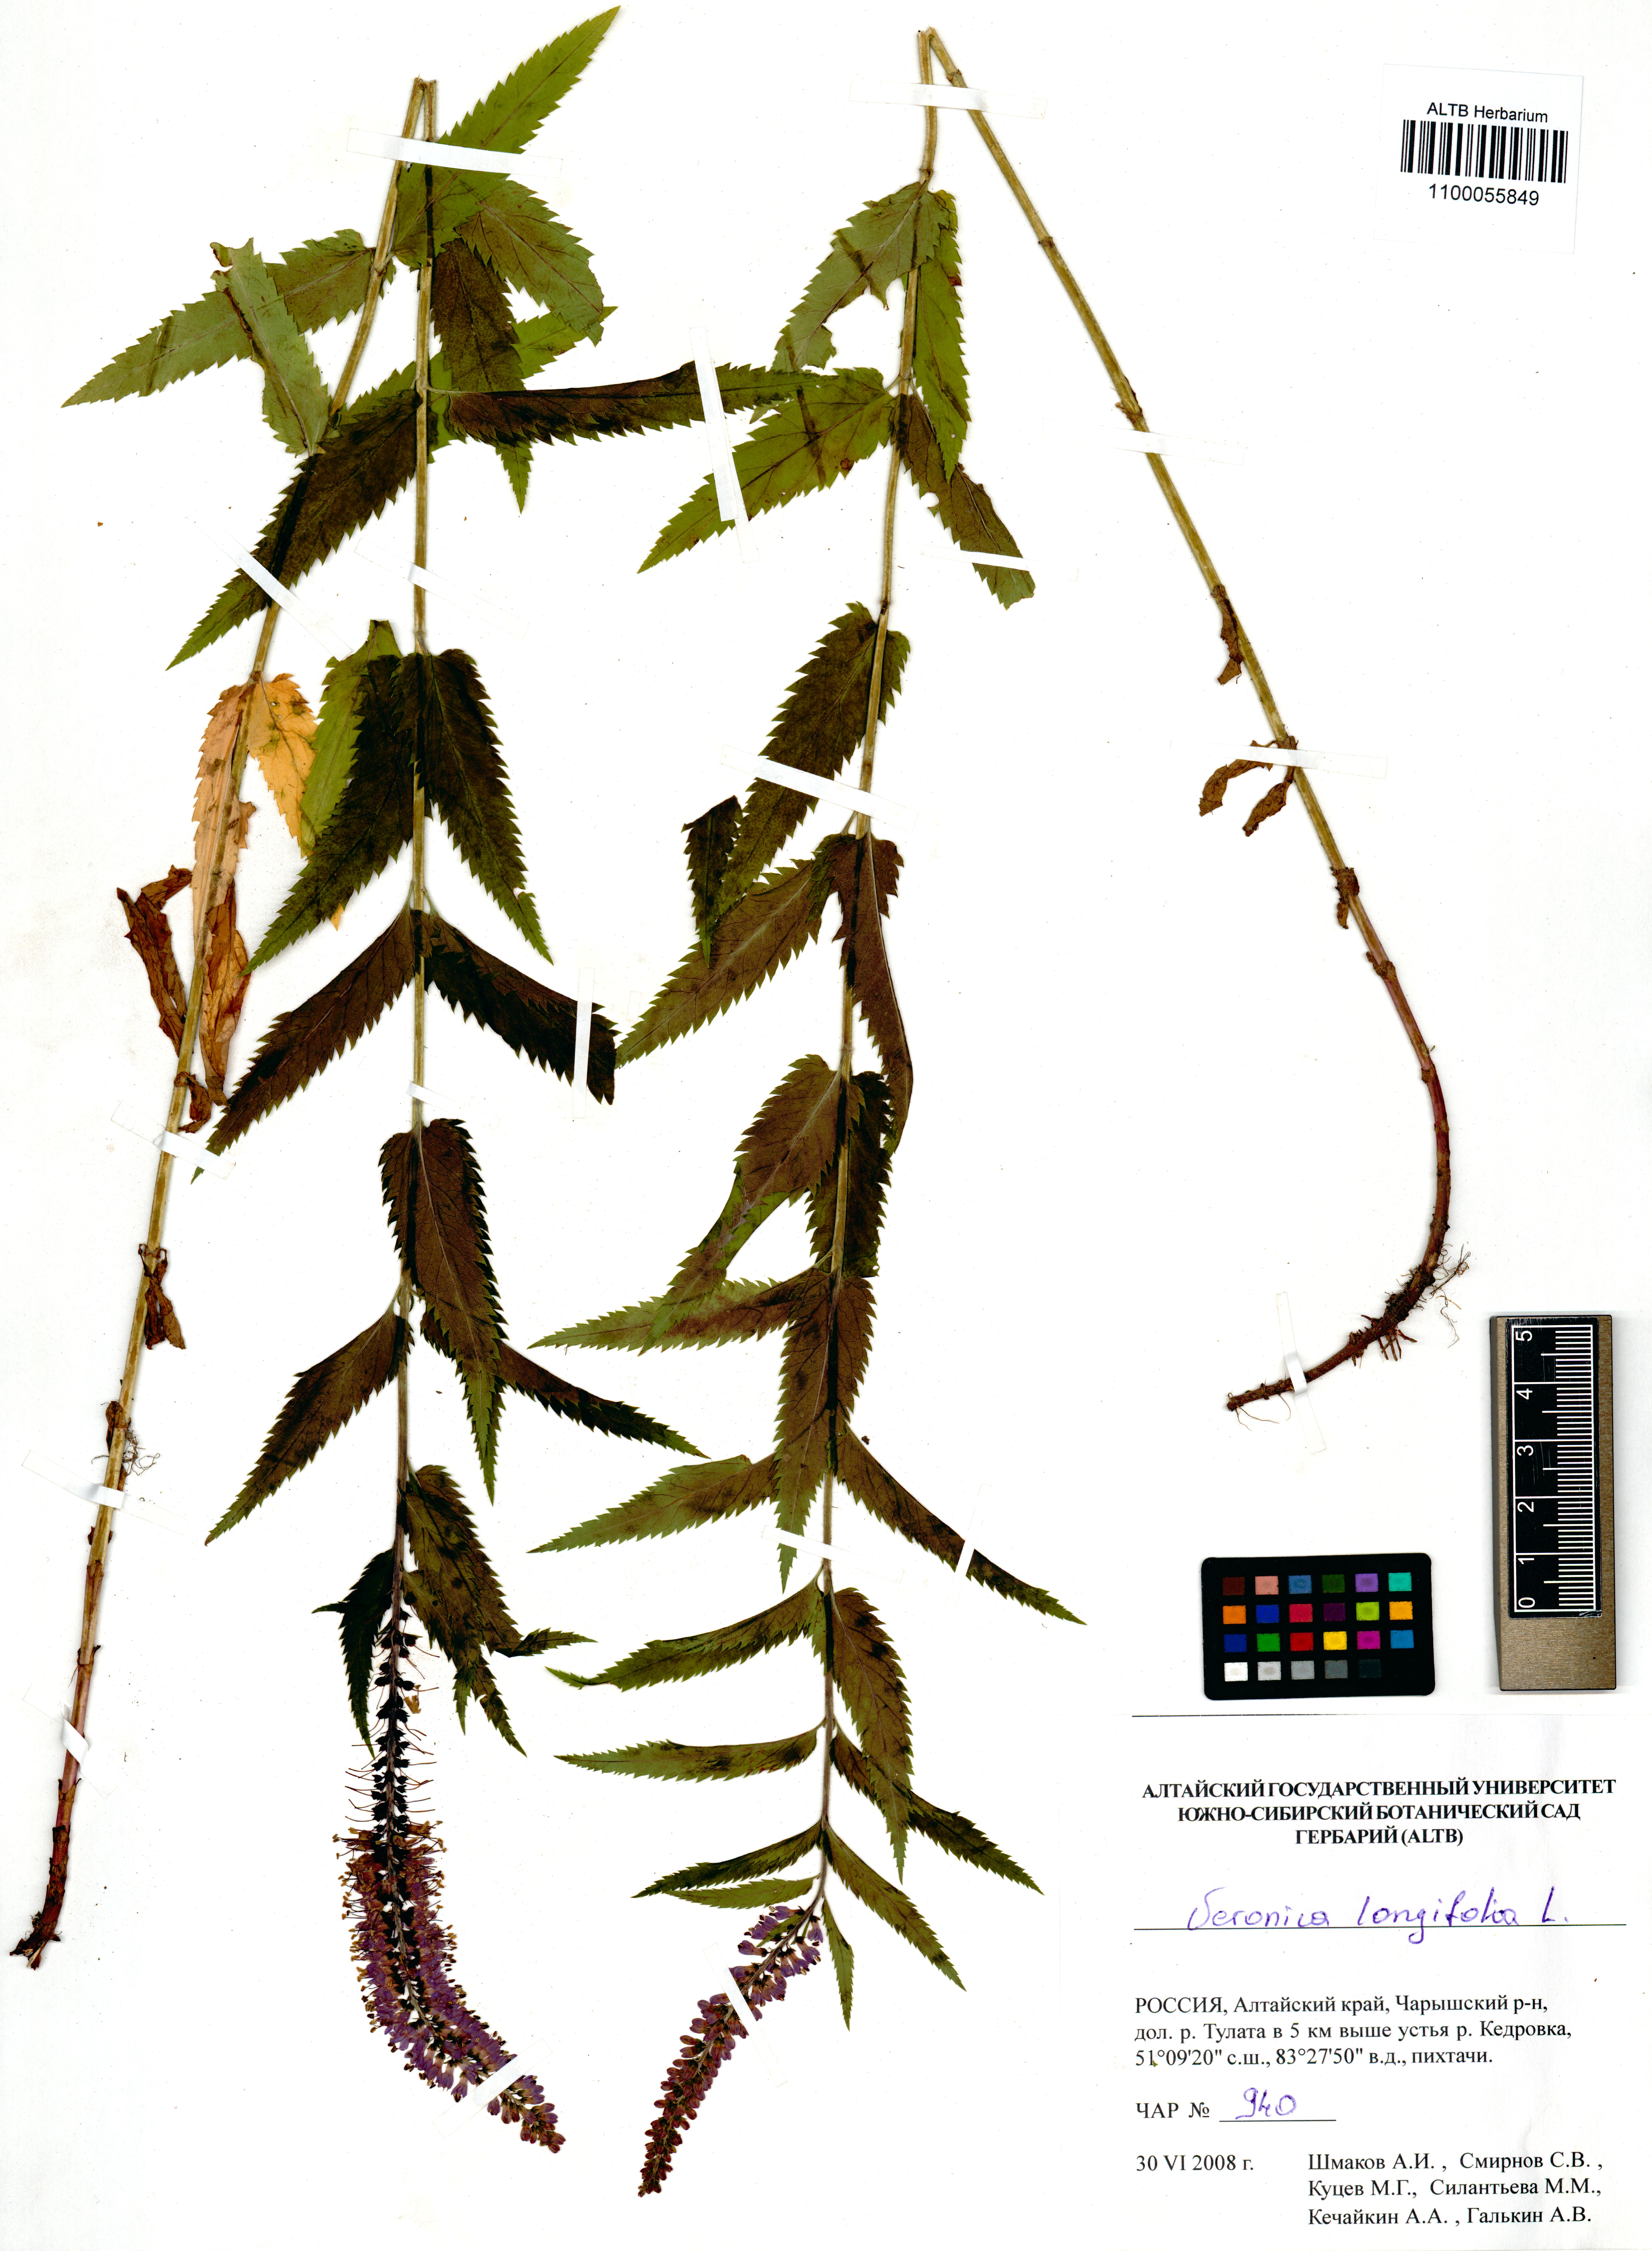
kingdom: Plantae
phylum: Tracheophyta
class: Magnoliopsida
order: Lamiales
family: Plantaginaceae
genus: Veronica
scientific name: Veronica longifolia
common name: Garden speedwell
